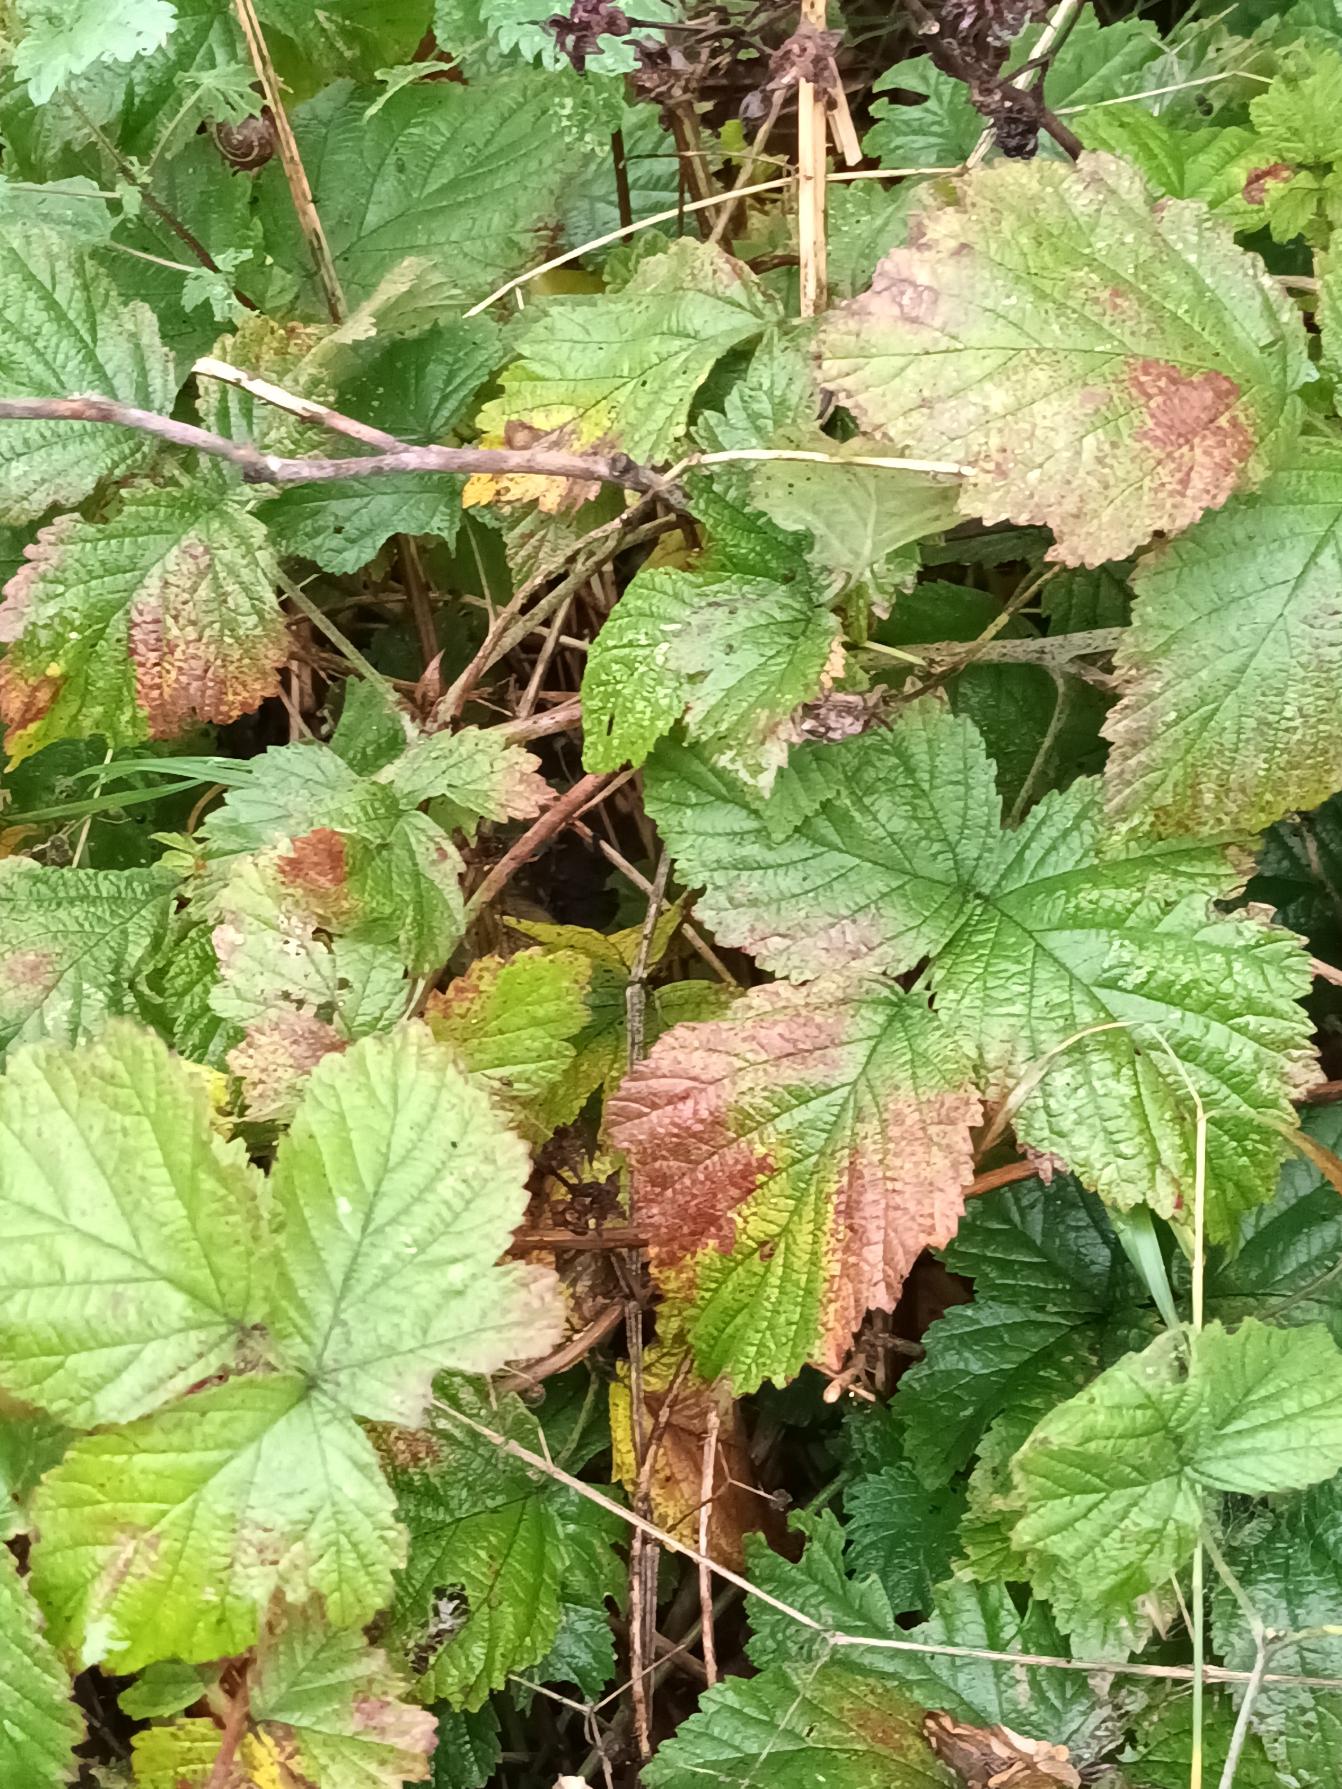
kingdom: Plantae
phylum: Tracheophyta
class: Magnoliopsida
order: Rosales
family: Rosaceae
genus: Rubus
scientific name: Rubus caesius
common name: Korbær
